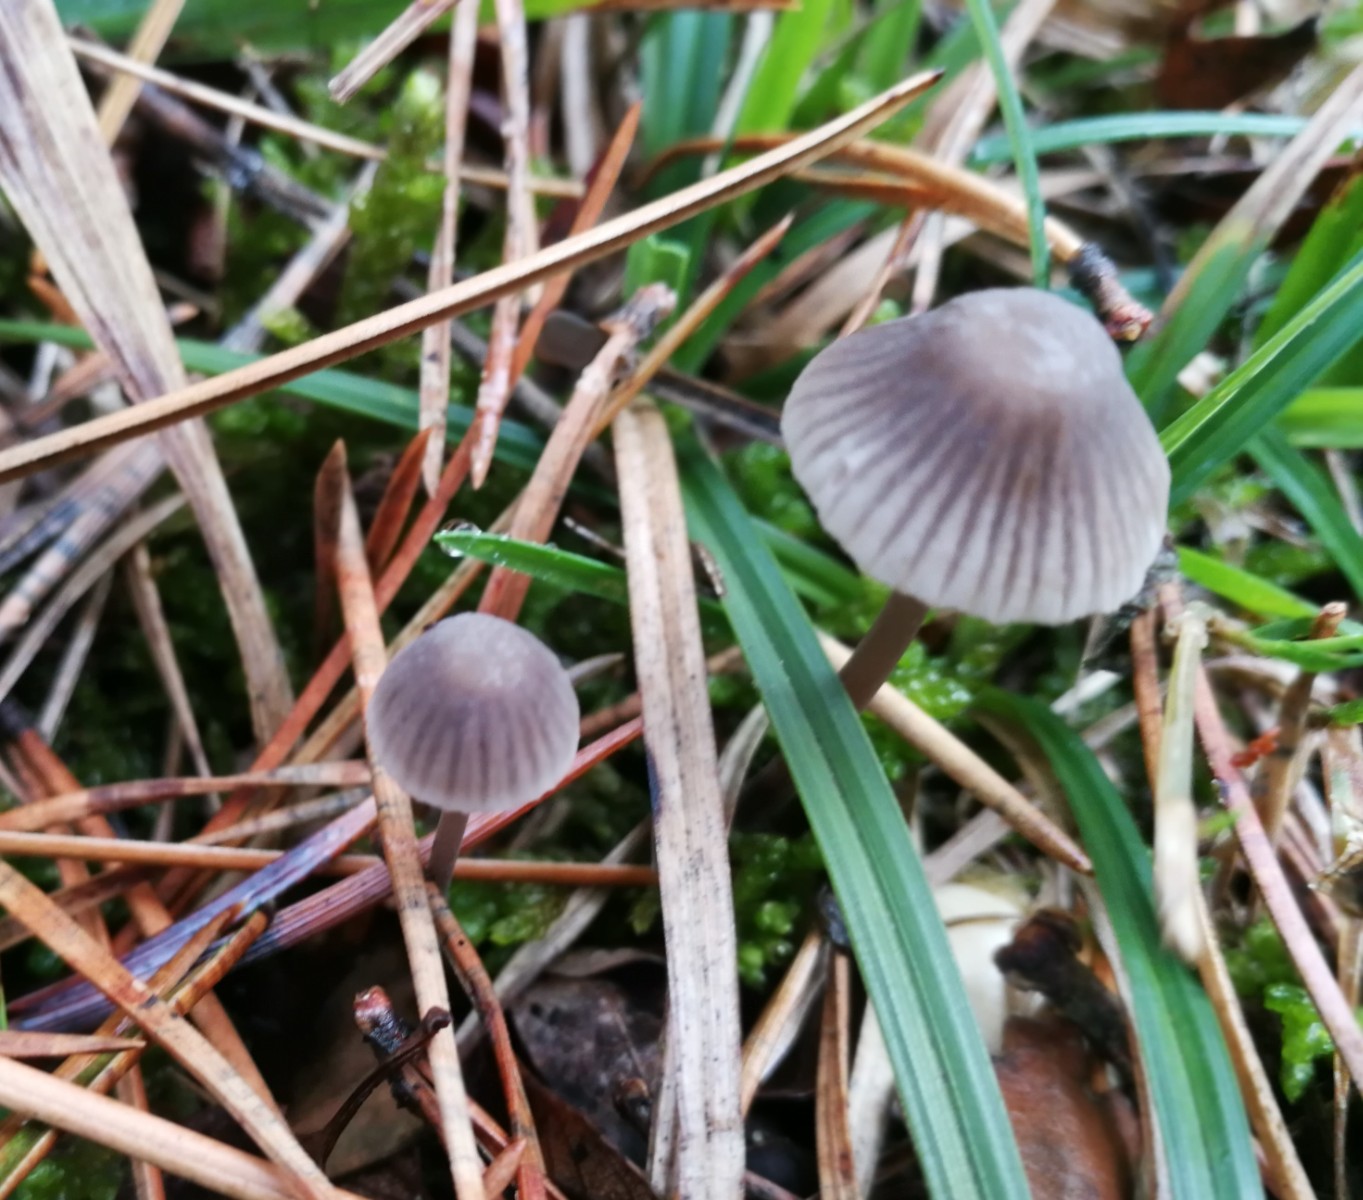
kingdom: Fungi
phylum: Basidiomycota
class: Agaricomycetes
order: Agaricales
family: Mycenaceae
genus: Mycena
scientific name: Mycena leptocephala
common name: klor-huesvamp
